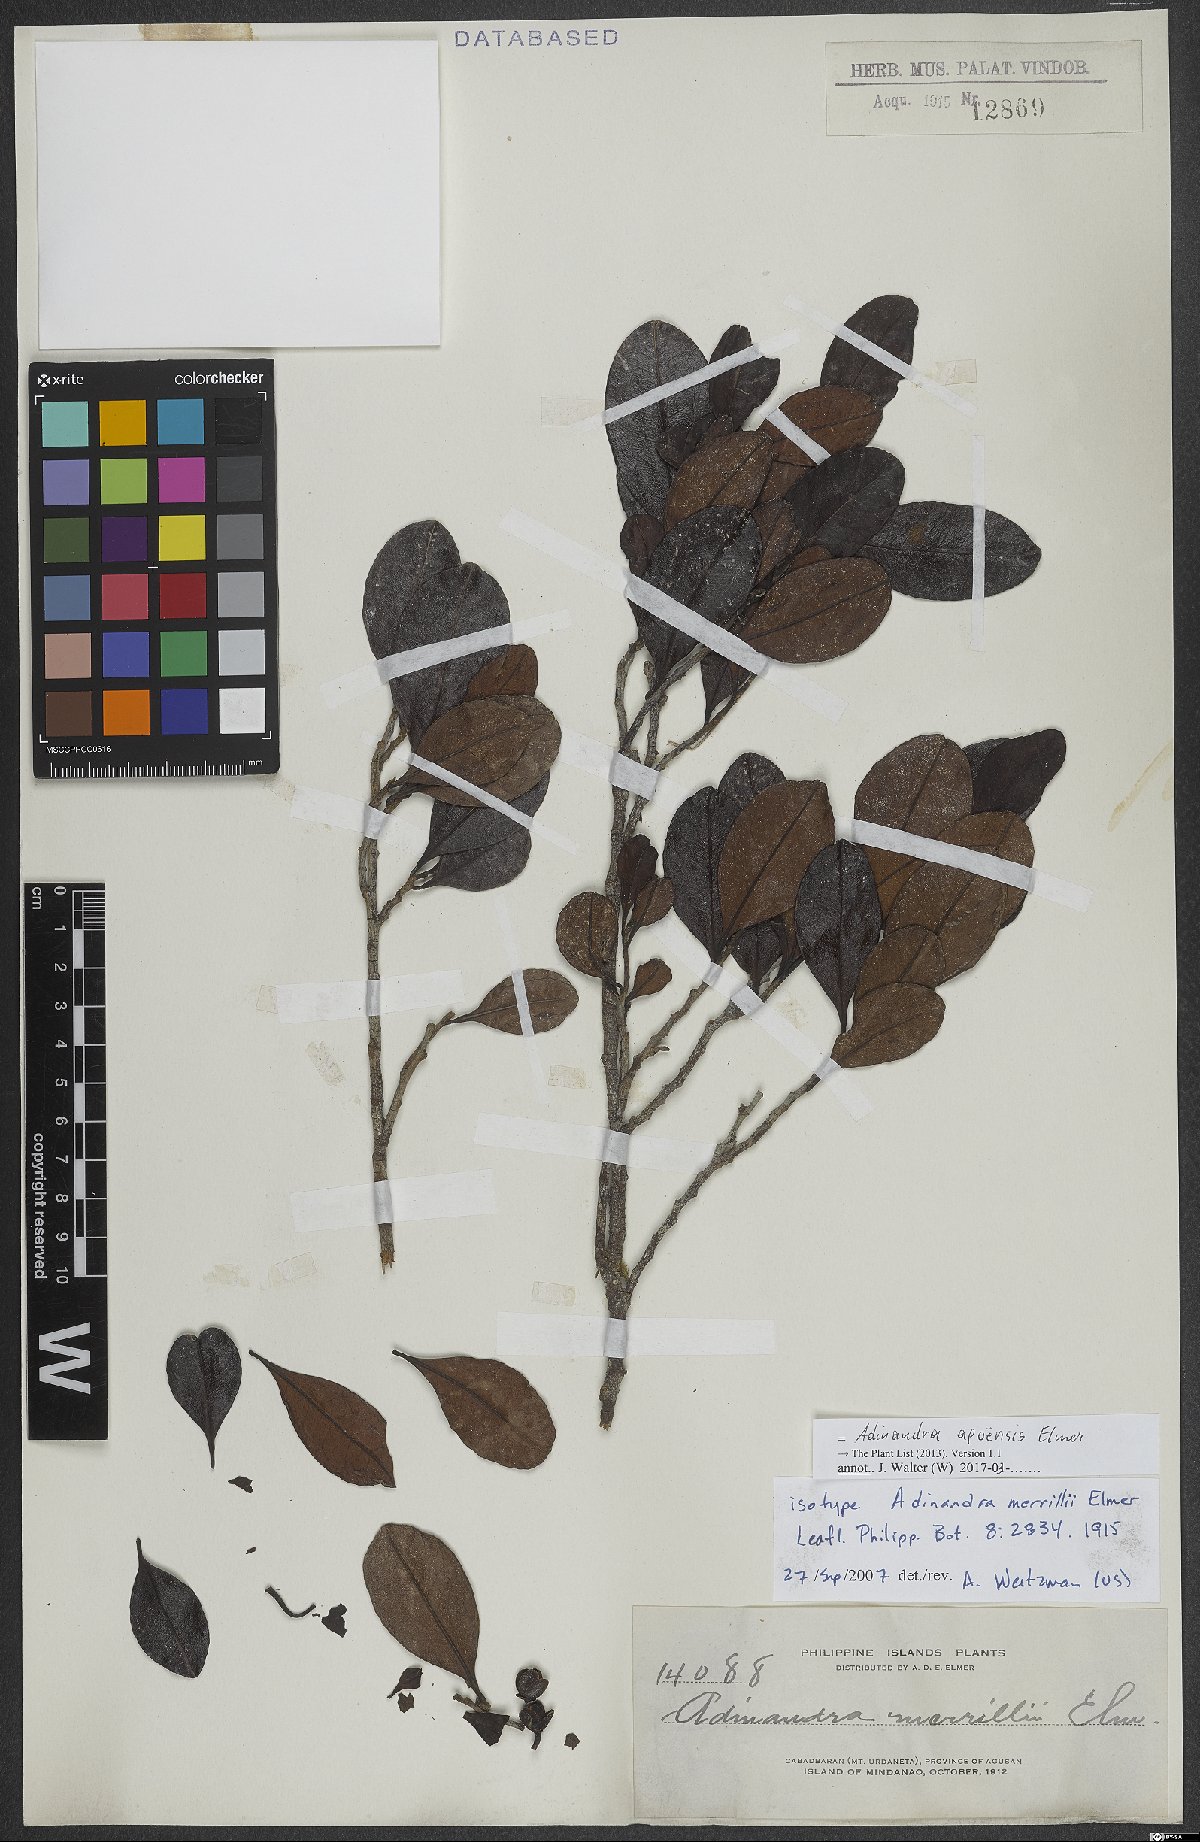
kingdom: Plantae
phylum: Tracheophyta
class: Magnoliopsida
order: Ericales
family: Pentaphylacaceae
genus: Adinandra
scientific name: Adinandra apoensis
